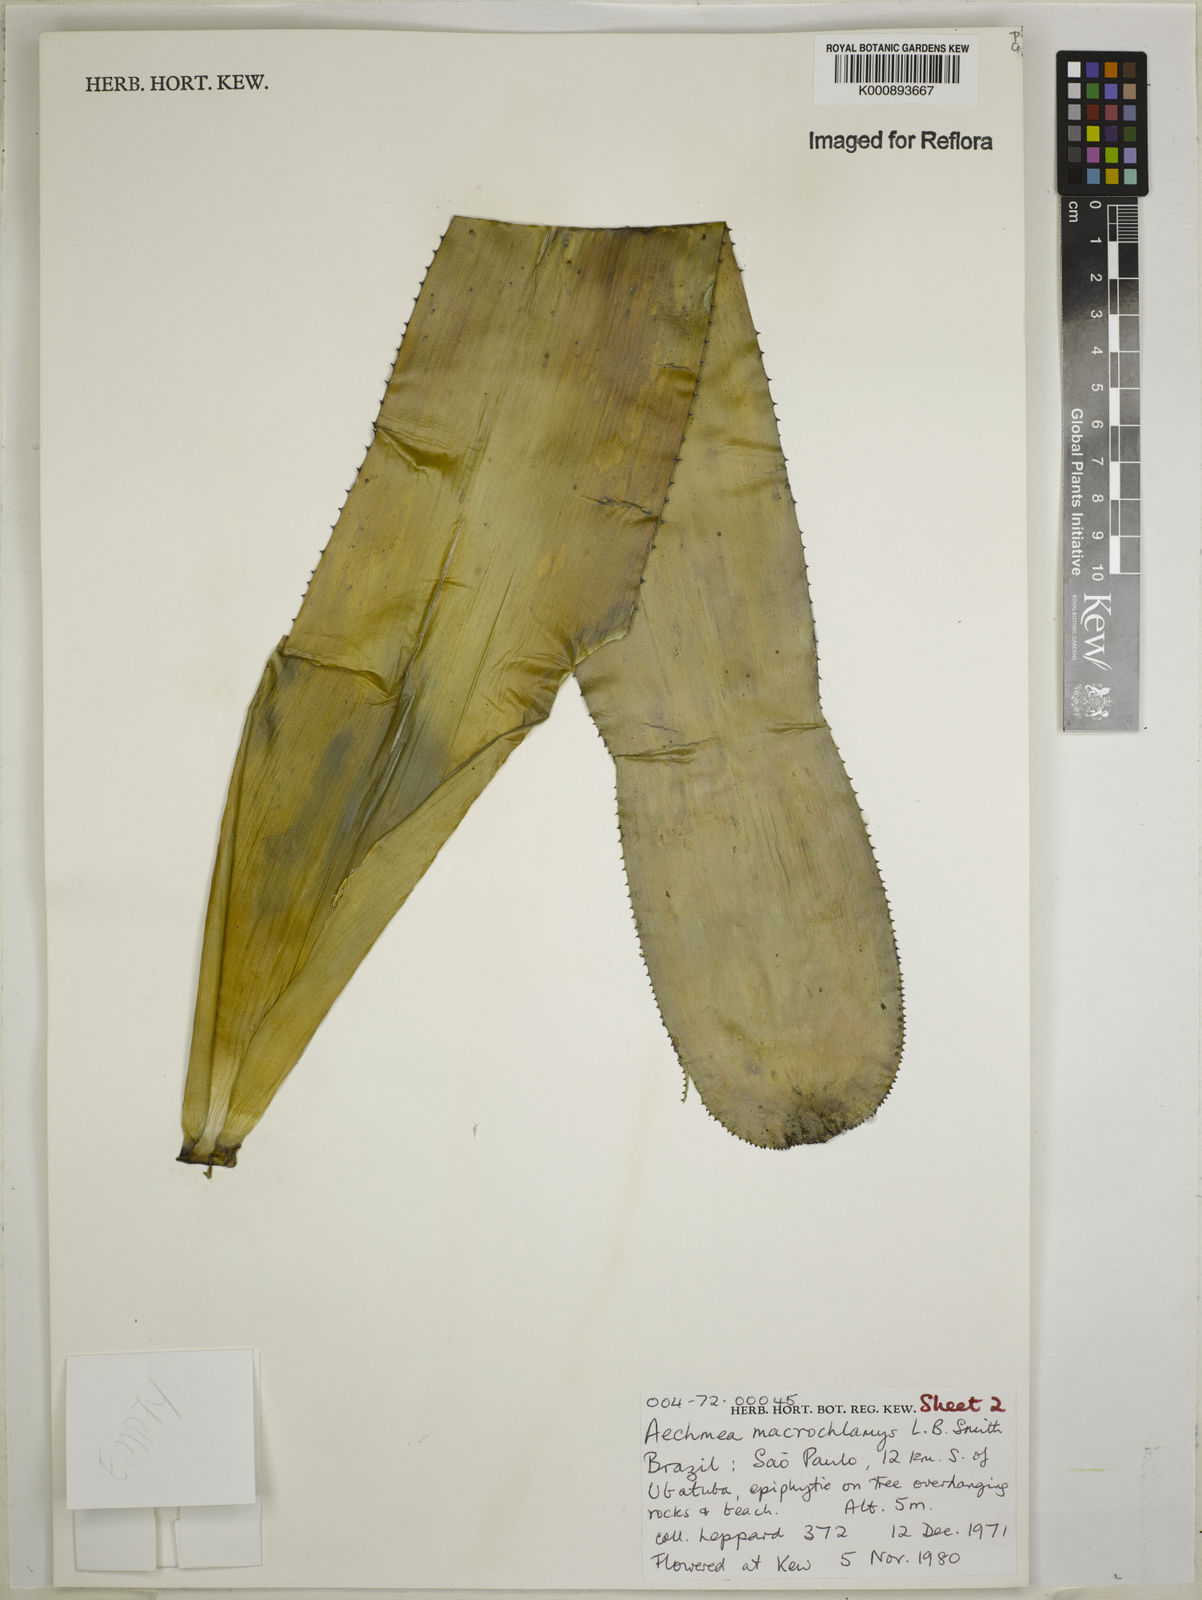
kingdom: Plantae
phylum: Tracheophyta
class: Liliopsida
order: Poales
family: Bromeliaceae
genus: Aechmea
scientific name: Aechmea macrochlamys
